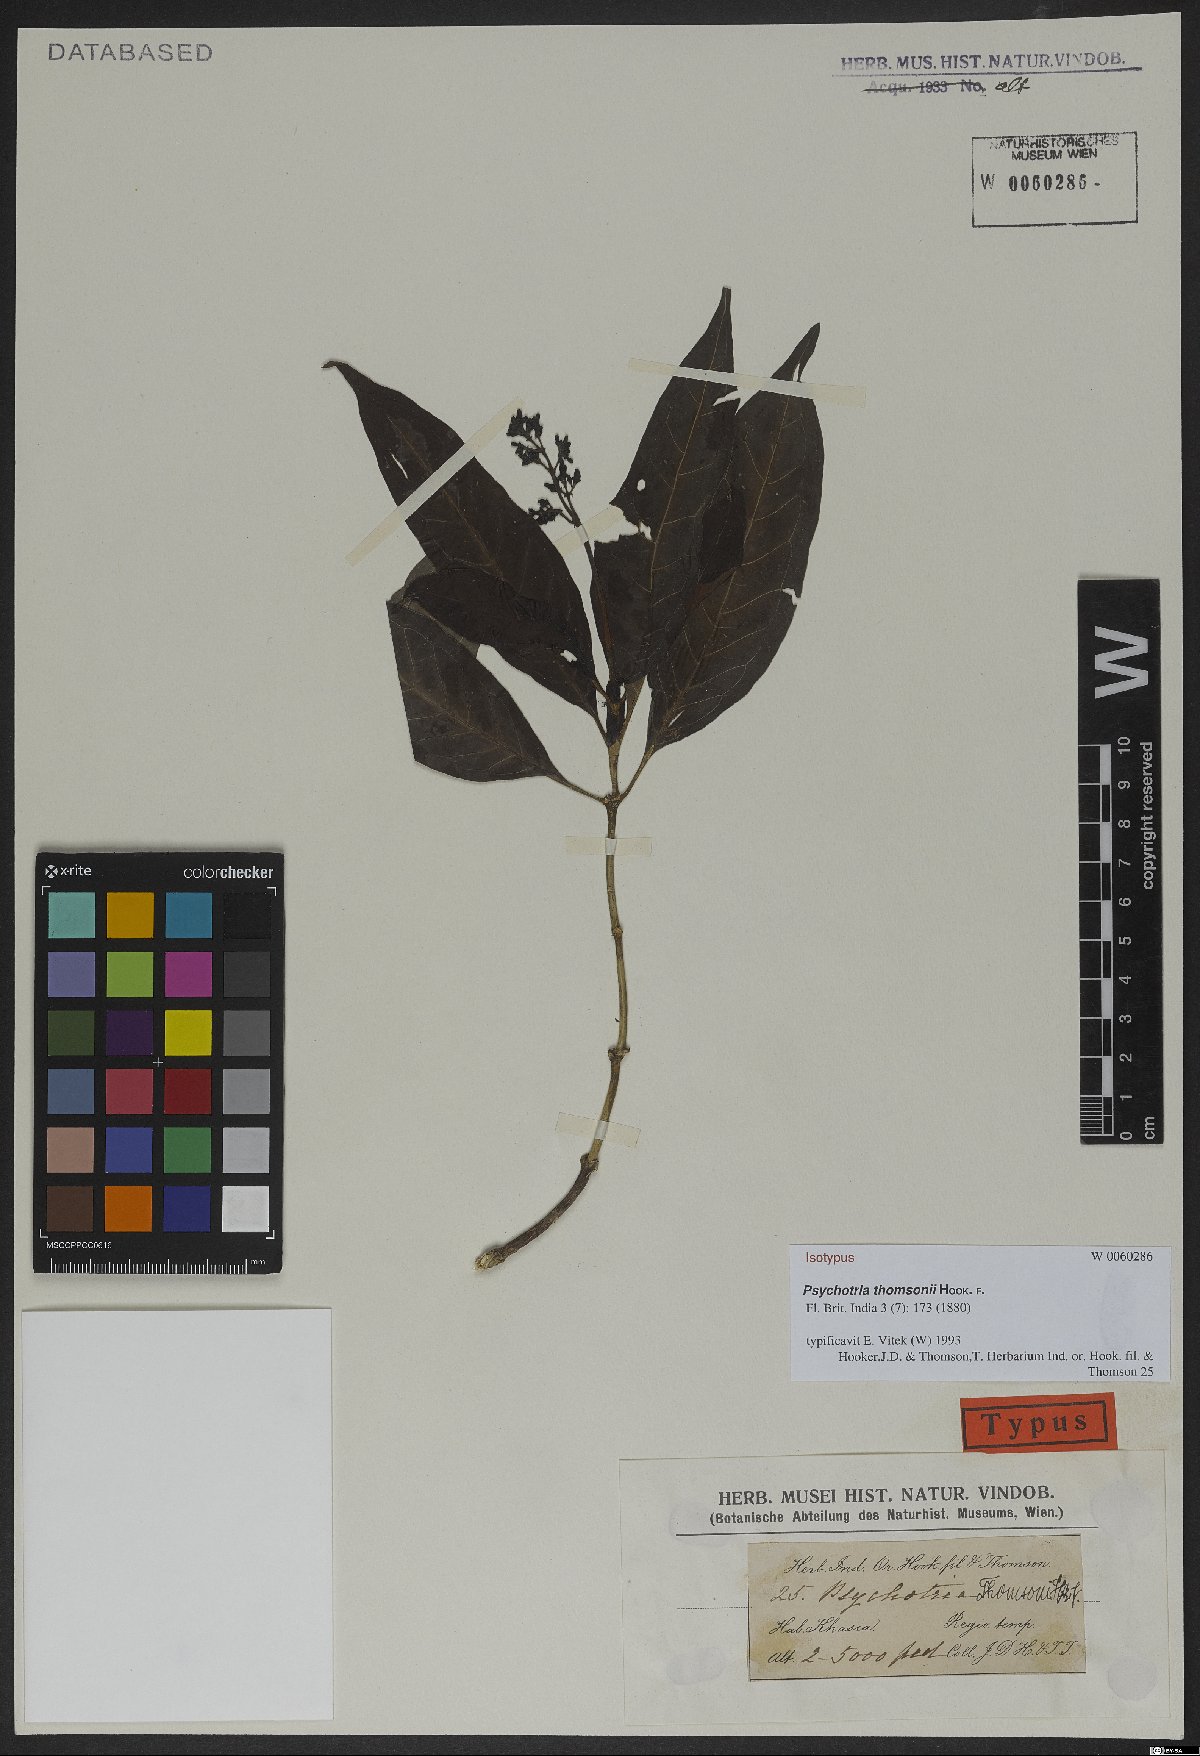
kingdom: Plantae
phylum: Tracheophyta
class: Magnoliopsida
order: Gentianales
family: Rubiaceae
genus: Psychotria
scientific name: Psychotria thomsonii
